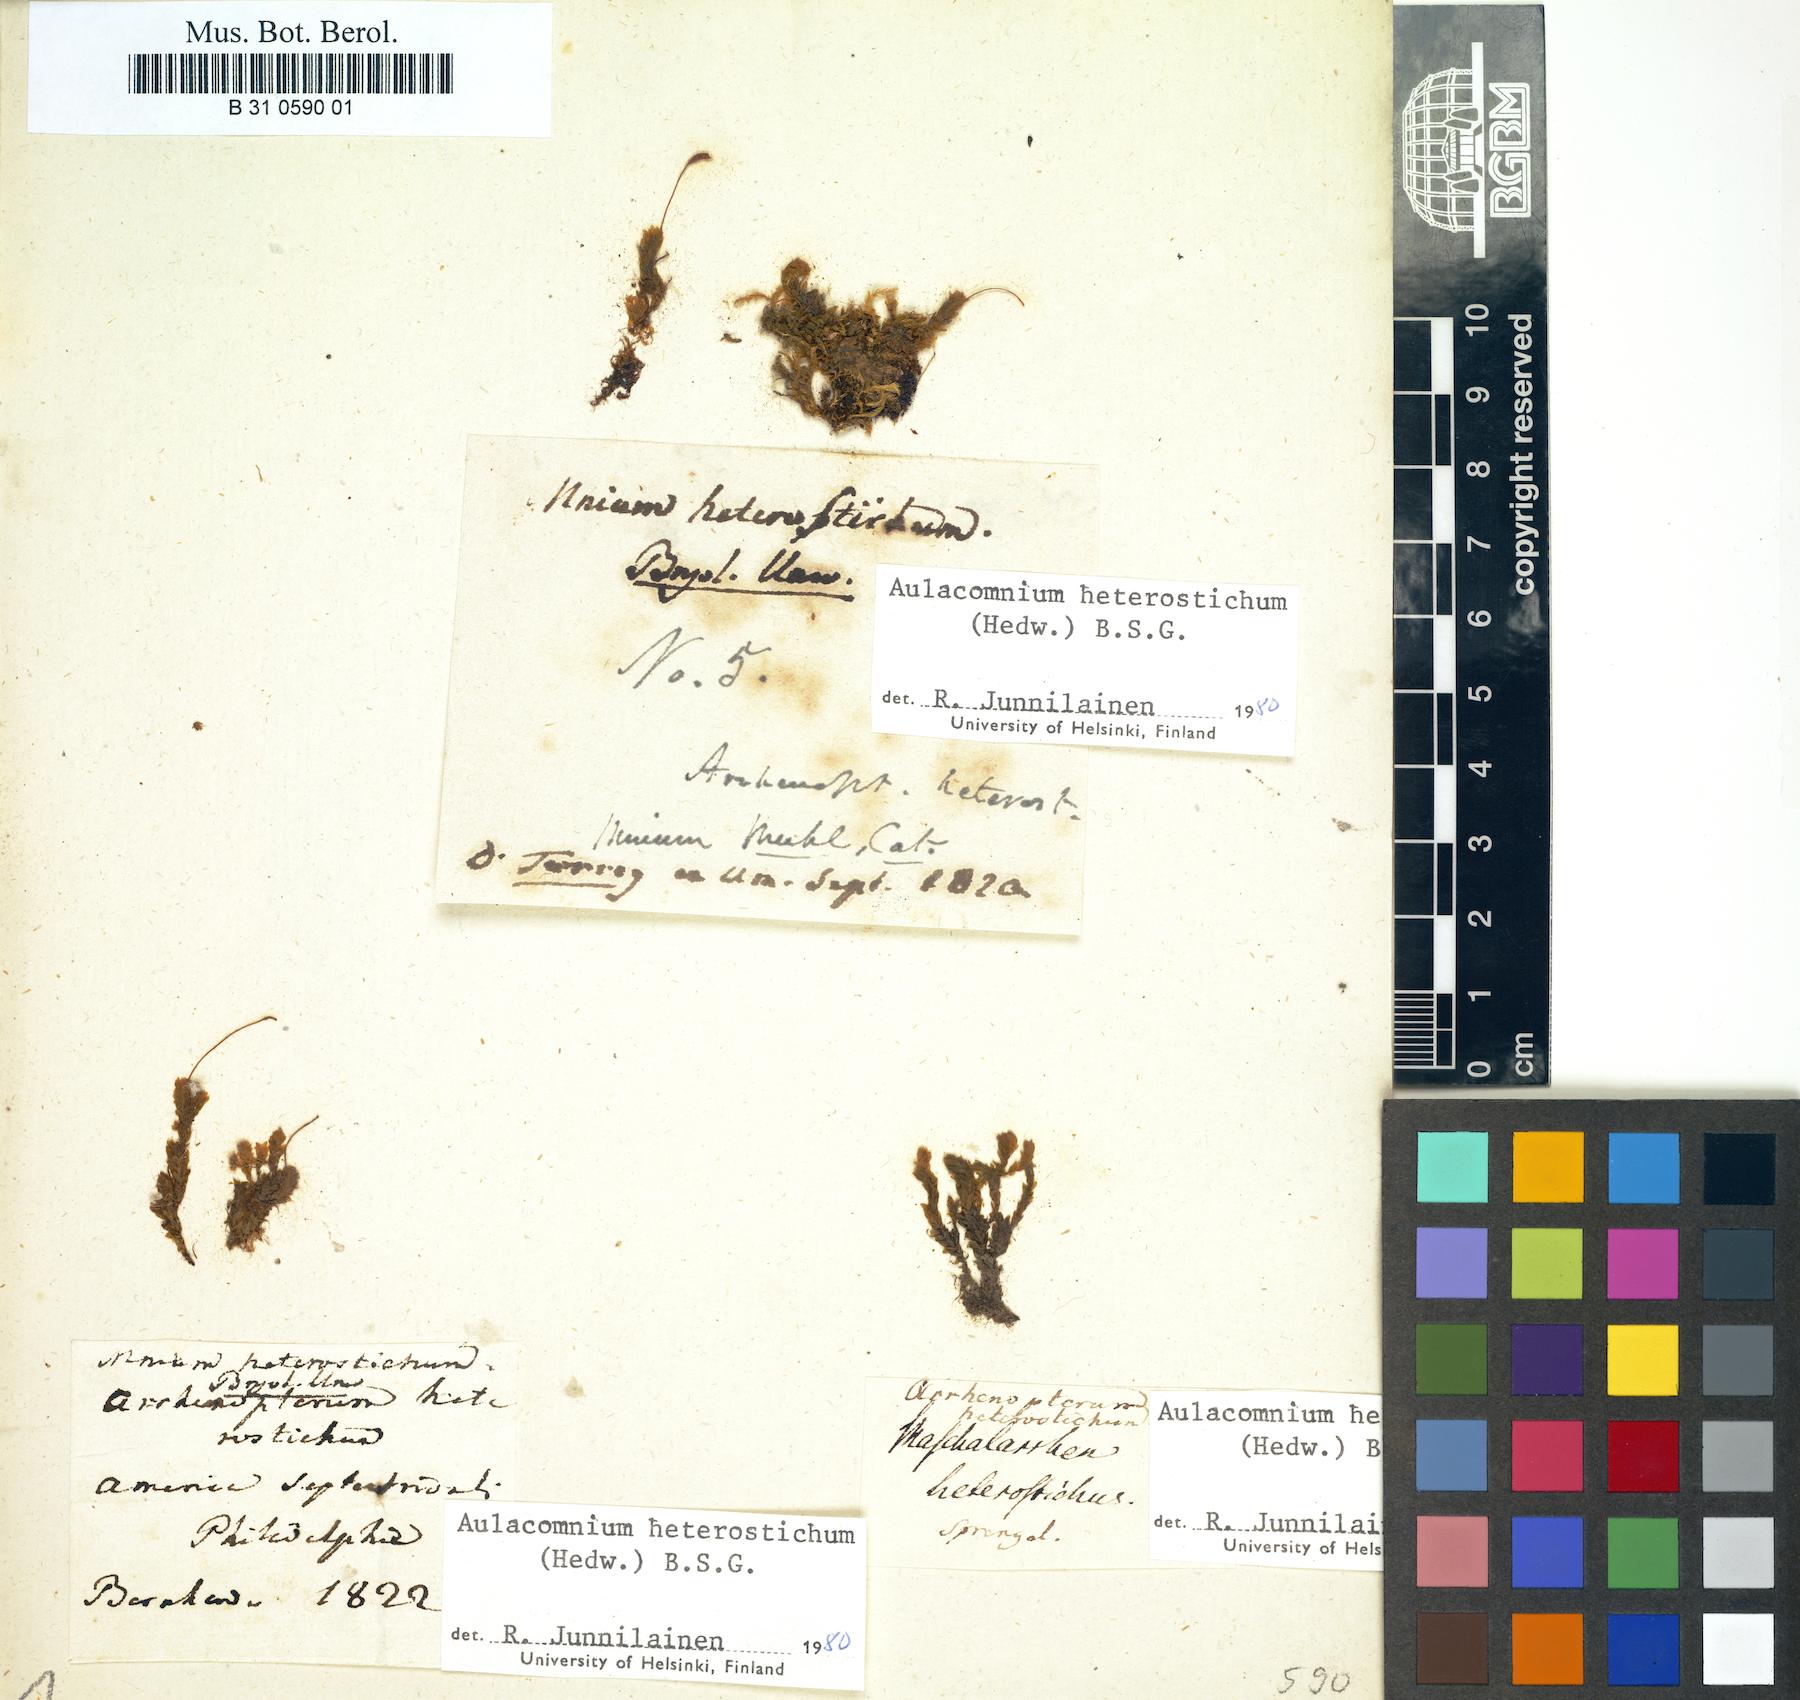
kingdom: Plantae
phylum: Bryophyta
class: Bryopsida
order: Aulacomniales
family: Aulacomniaceae
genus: Aulacomnium
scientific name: Aulacomnium heterostichum
